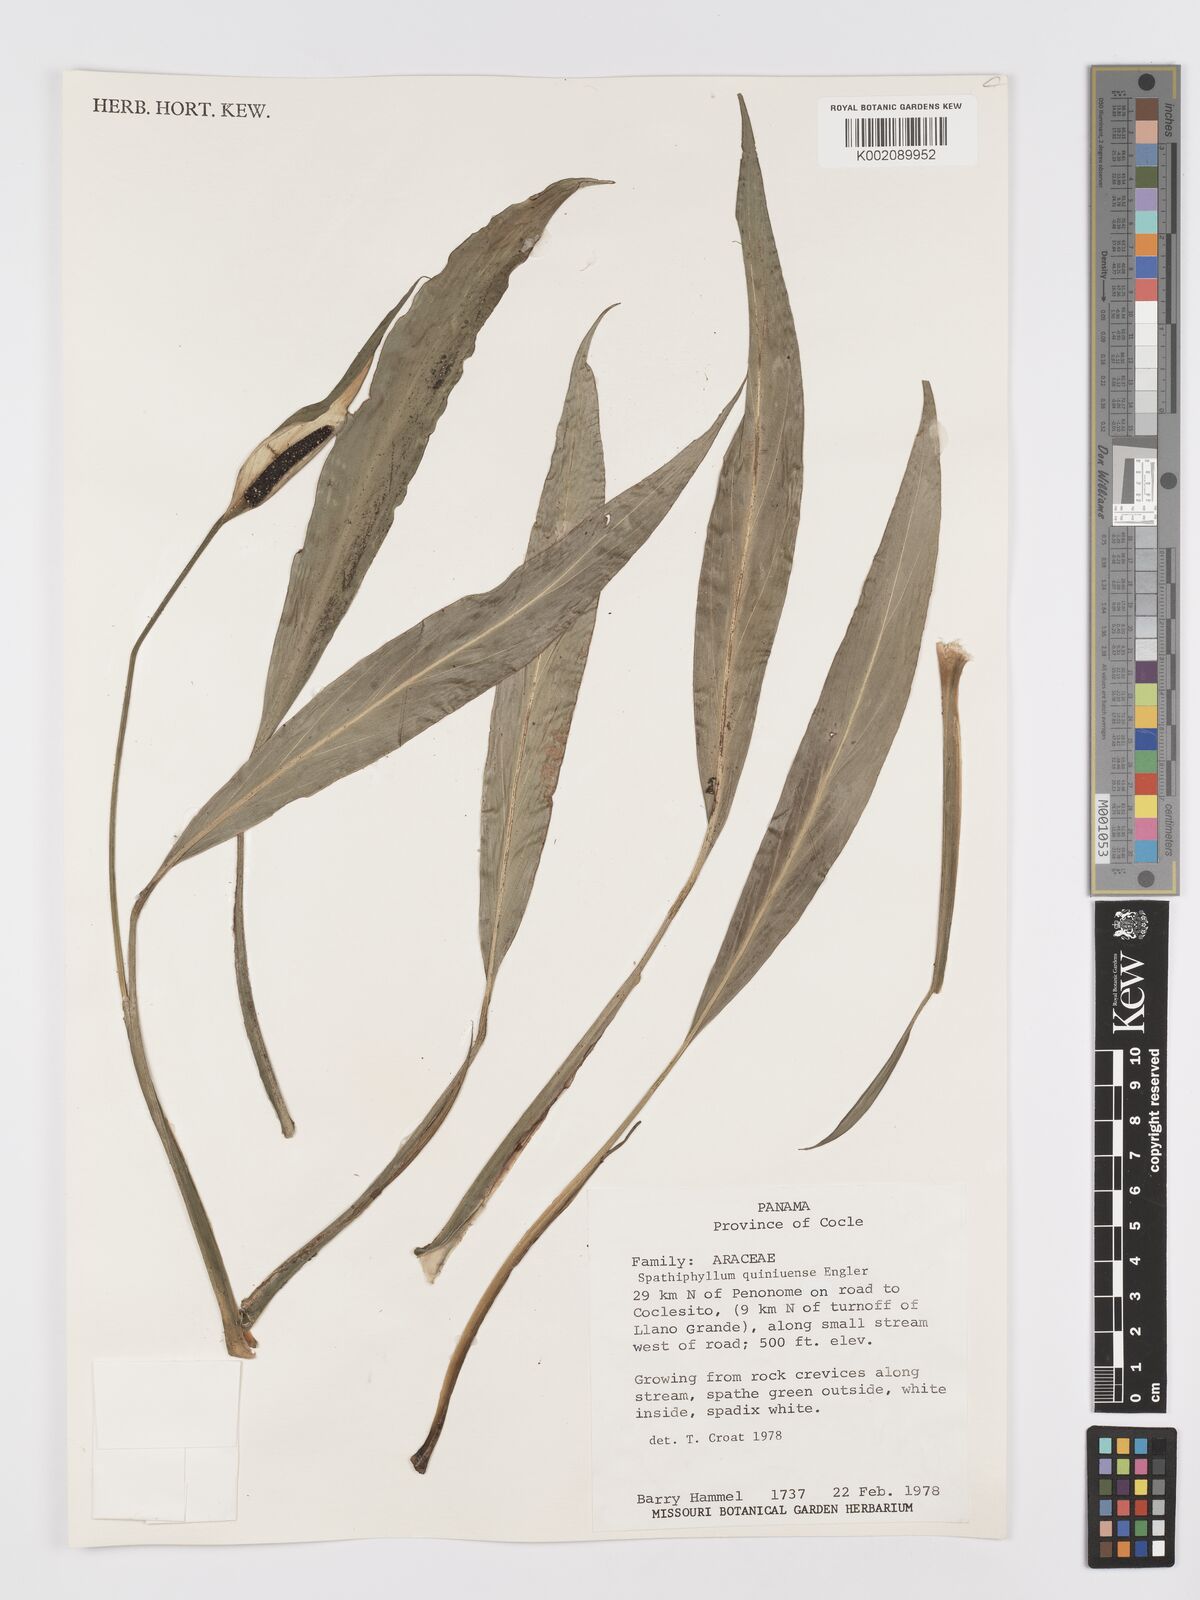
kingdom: Plantae
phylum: Tracheophyta
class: Liliopsida
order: Alismatales
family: Araceae
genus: Spathiphyllum
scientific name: Spathiphyllum quindiuense
